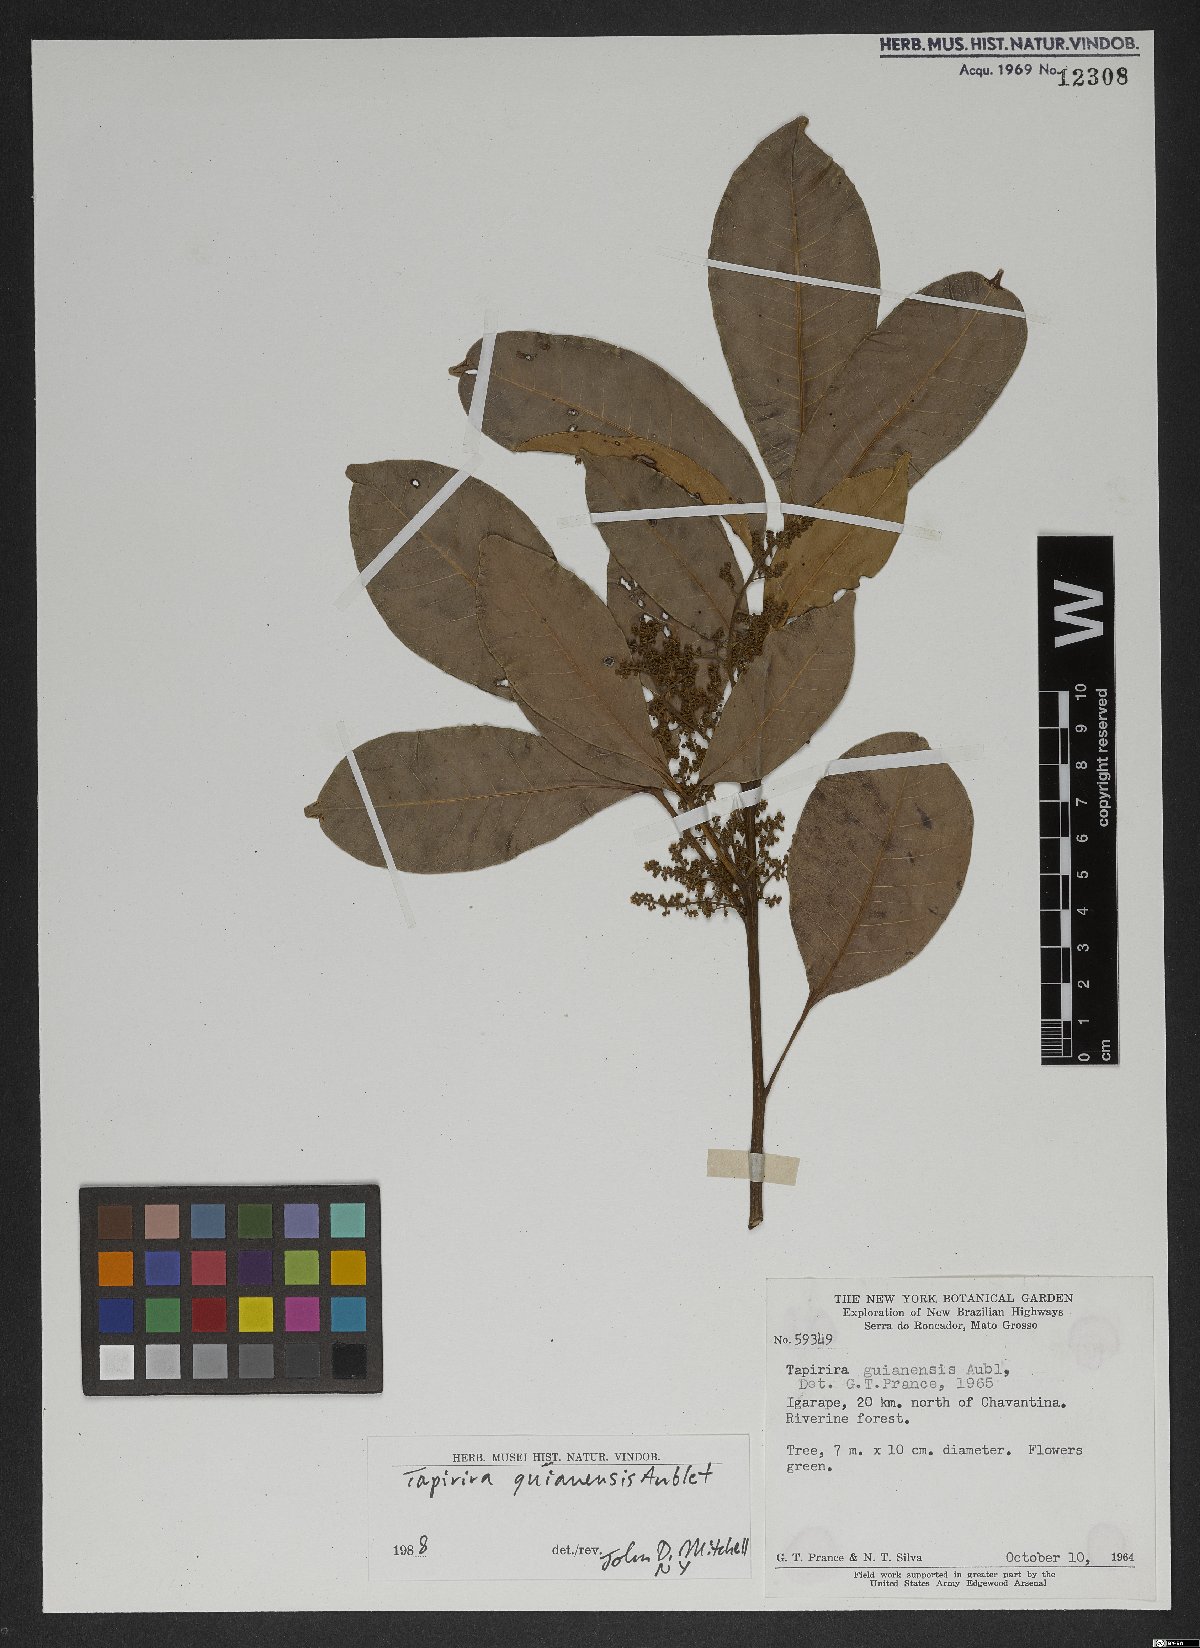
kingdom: Plantae
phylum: Tracheophyta
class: Magnoliopsida
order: Sapindales
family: Anacardiaceae
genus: Tapirira
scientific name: Tapirira guianensis
